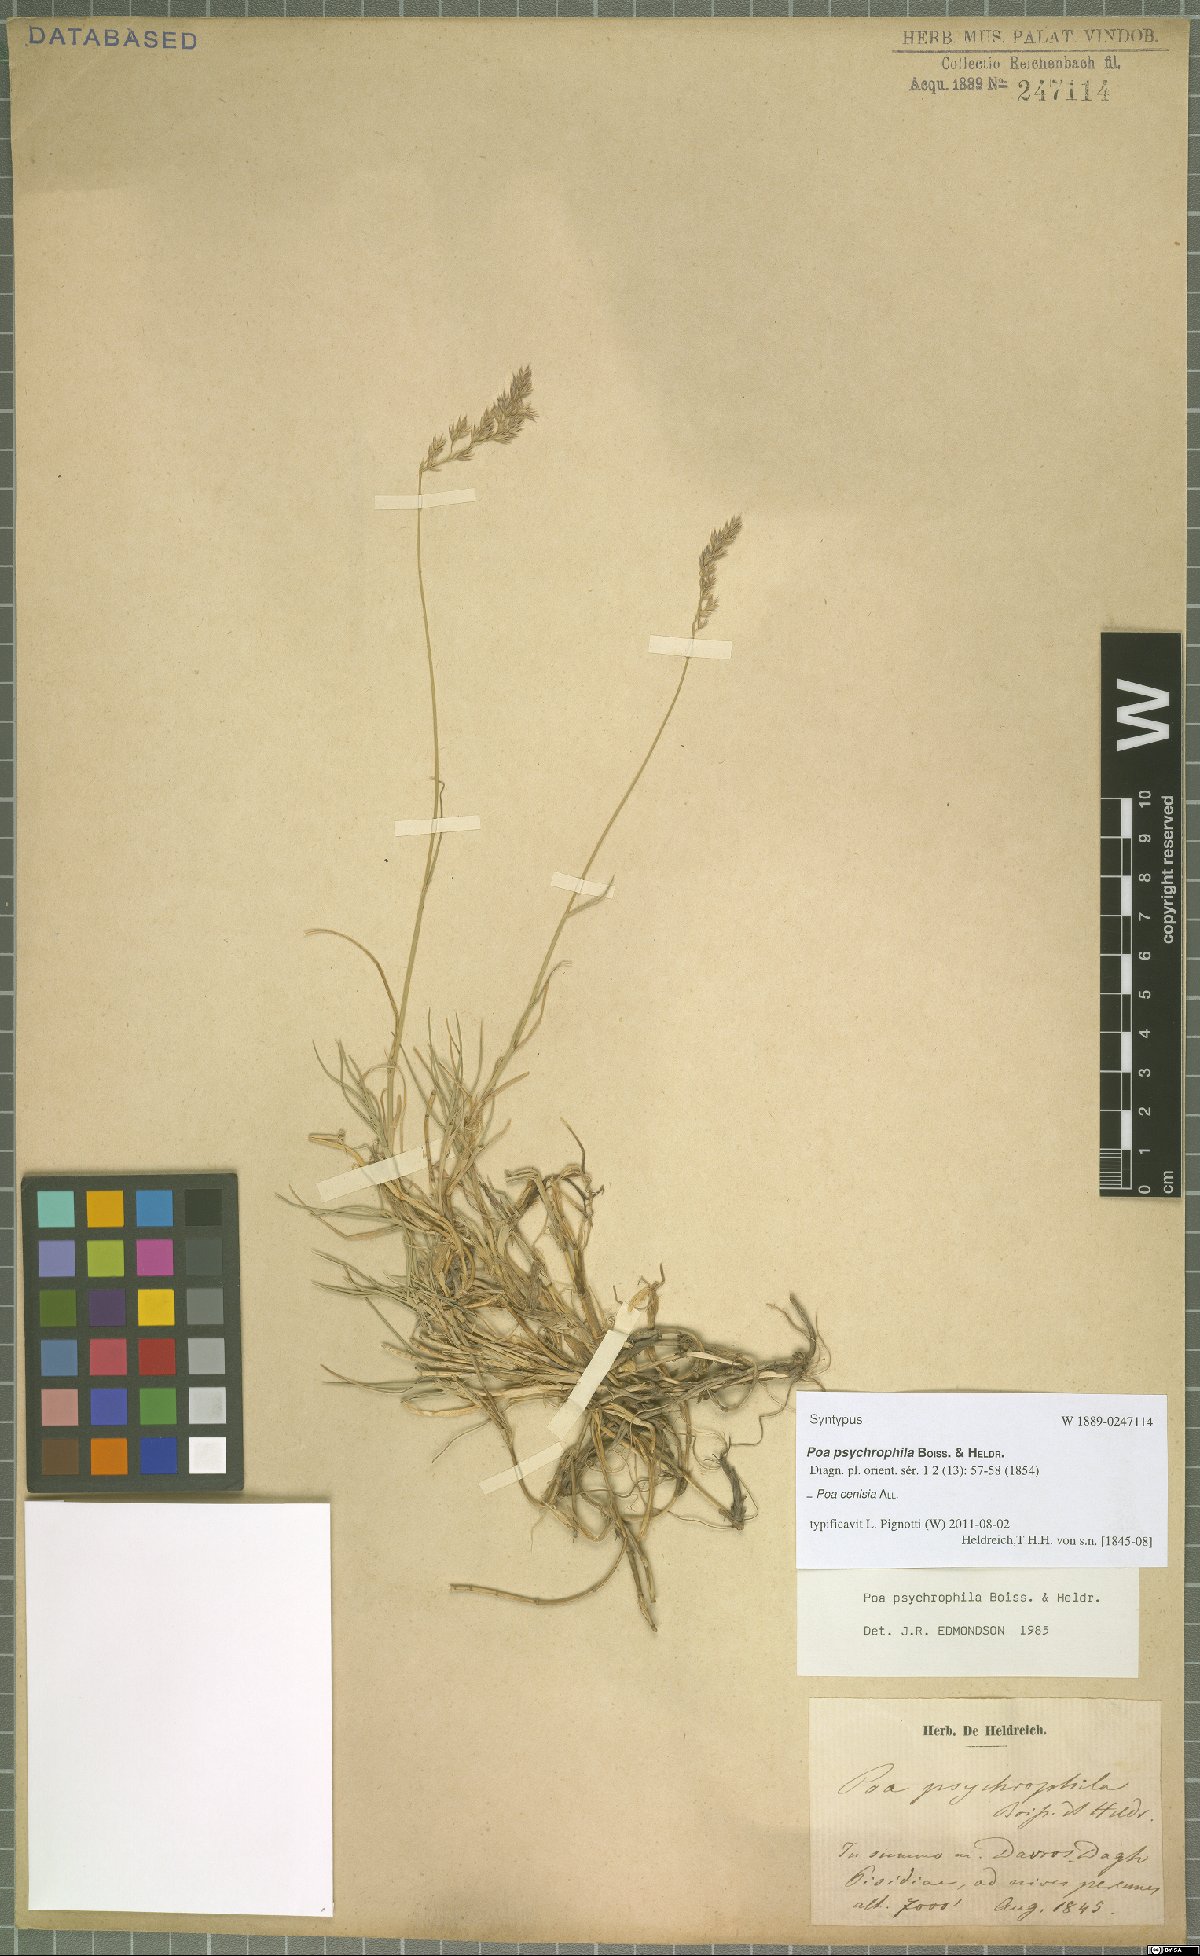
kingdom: Plantae
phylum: Tracheophyta
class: Liliopsida
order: Poales
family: Poaceae
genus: Poa
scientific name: Poa cenisia
